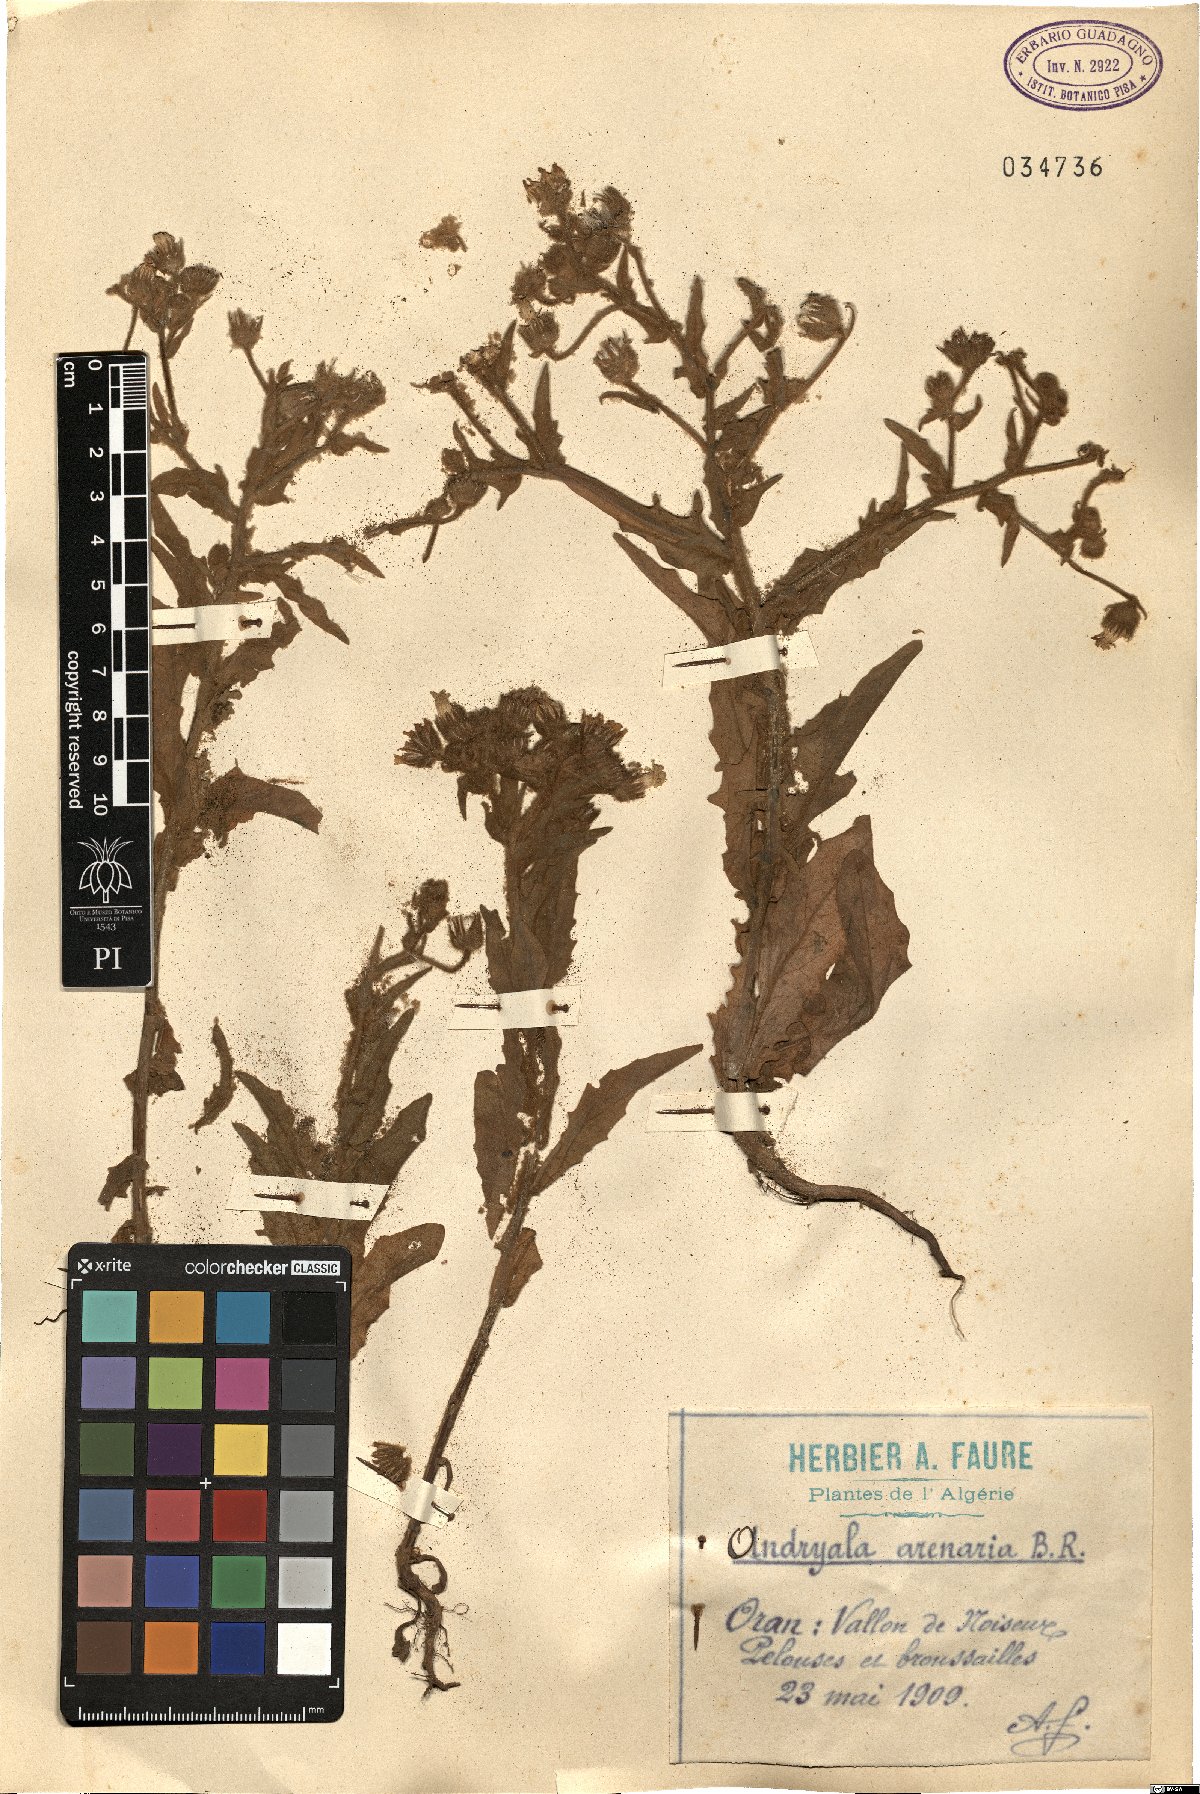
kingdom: Plantae
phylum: Tracheophyta
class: Magnoliopsida
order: Asterales
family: Asteraceae
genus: Andryala
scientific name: Andryala arenaria
